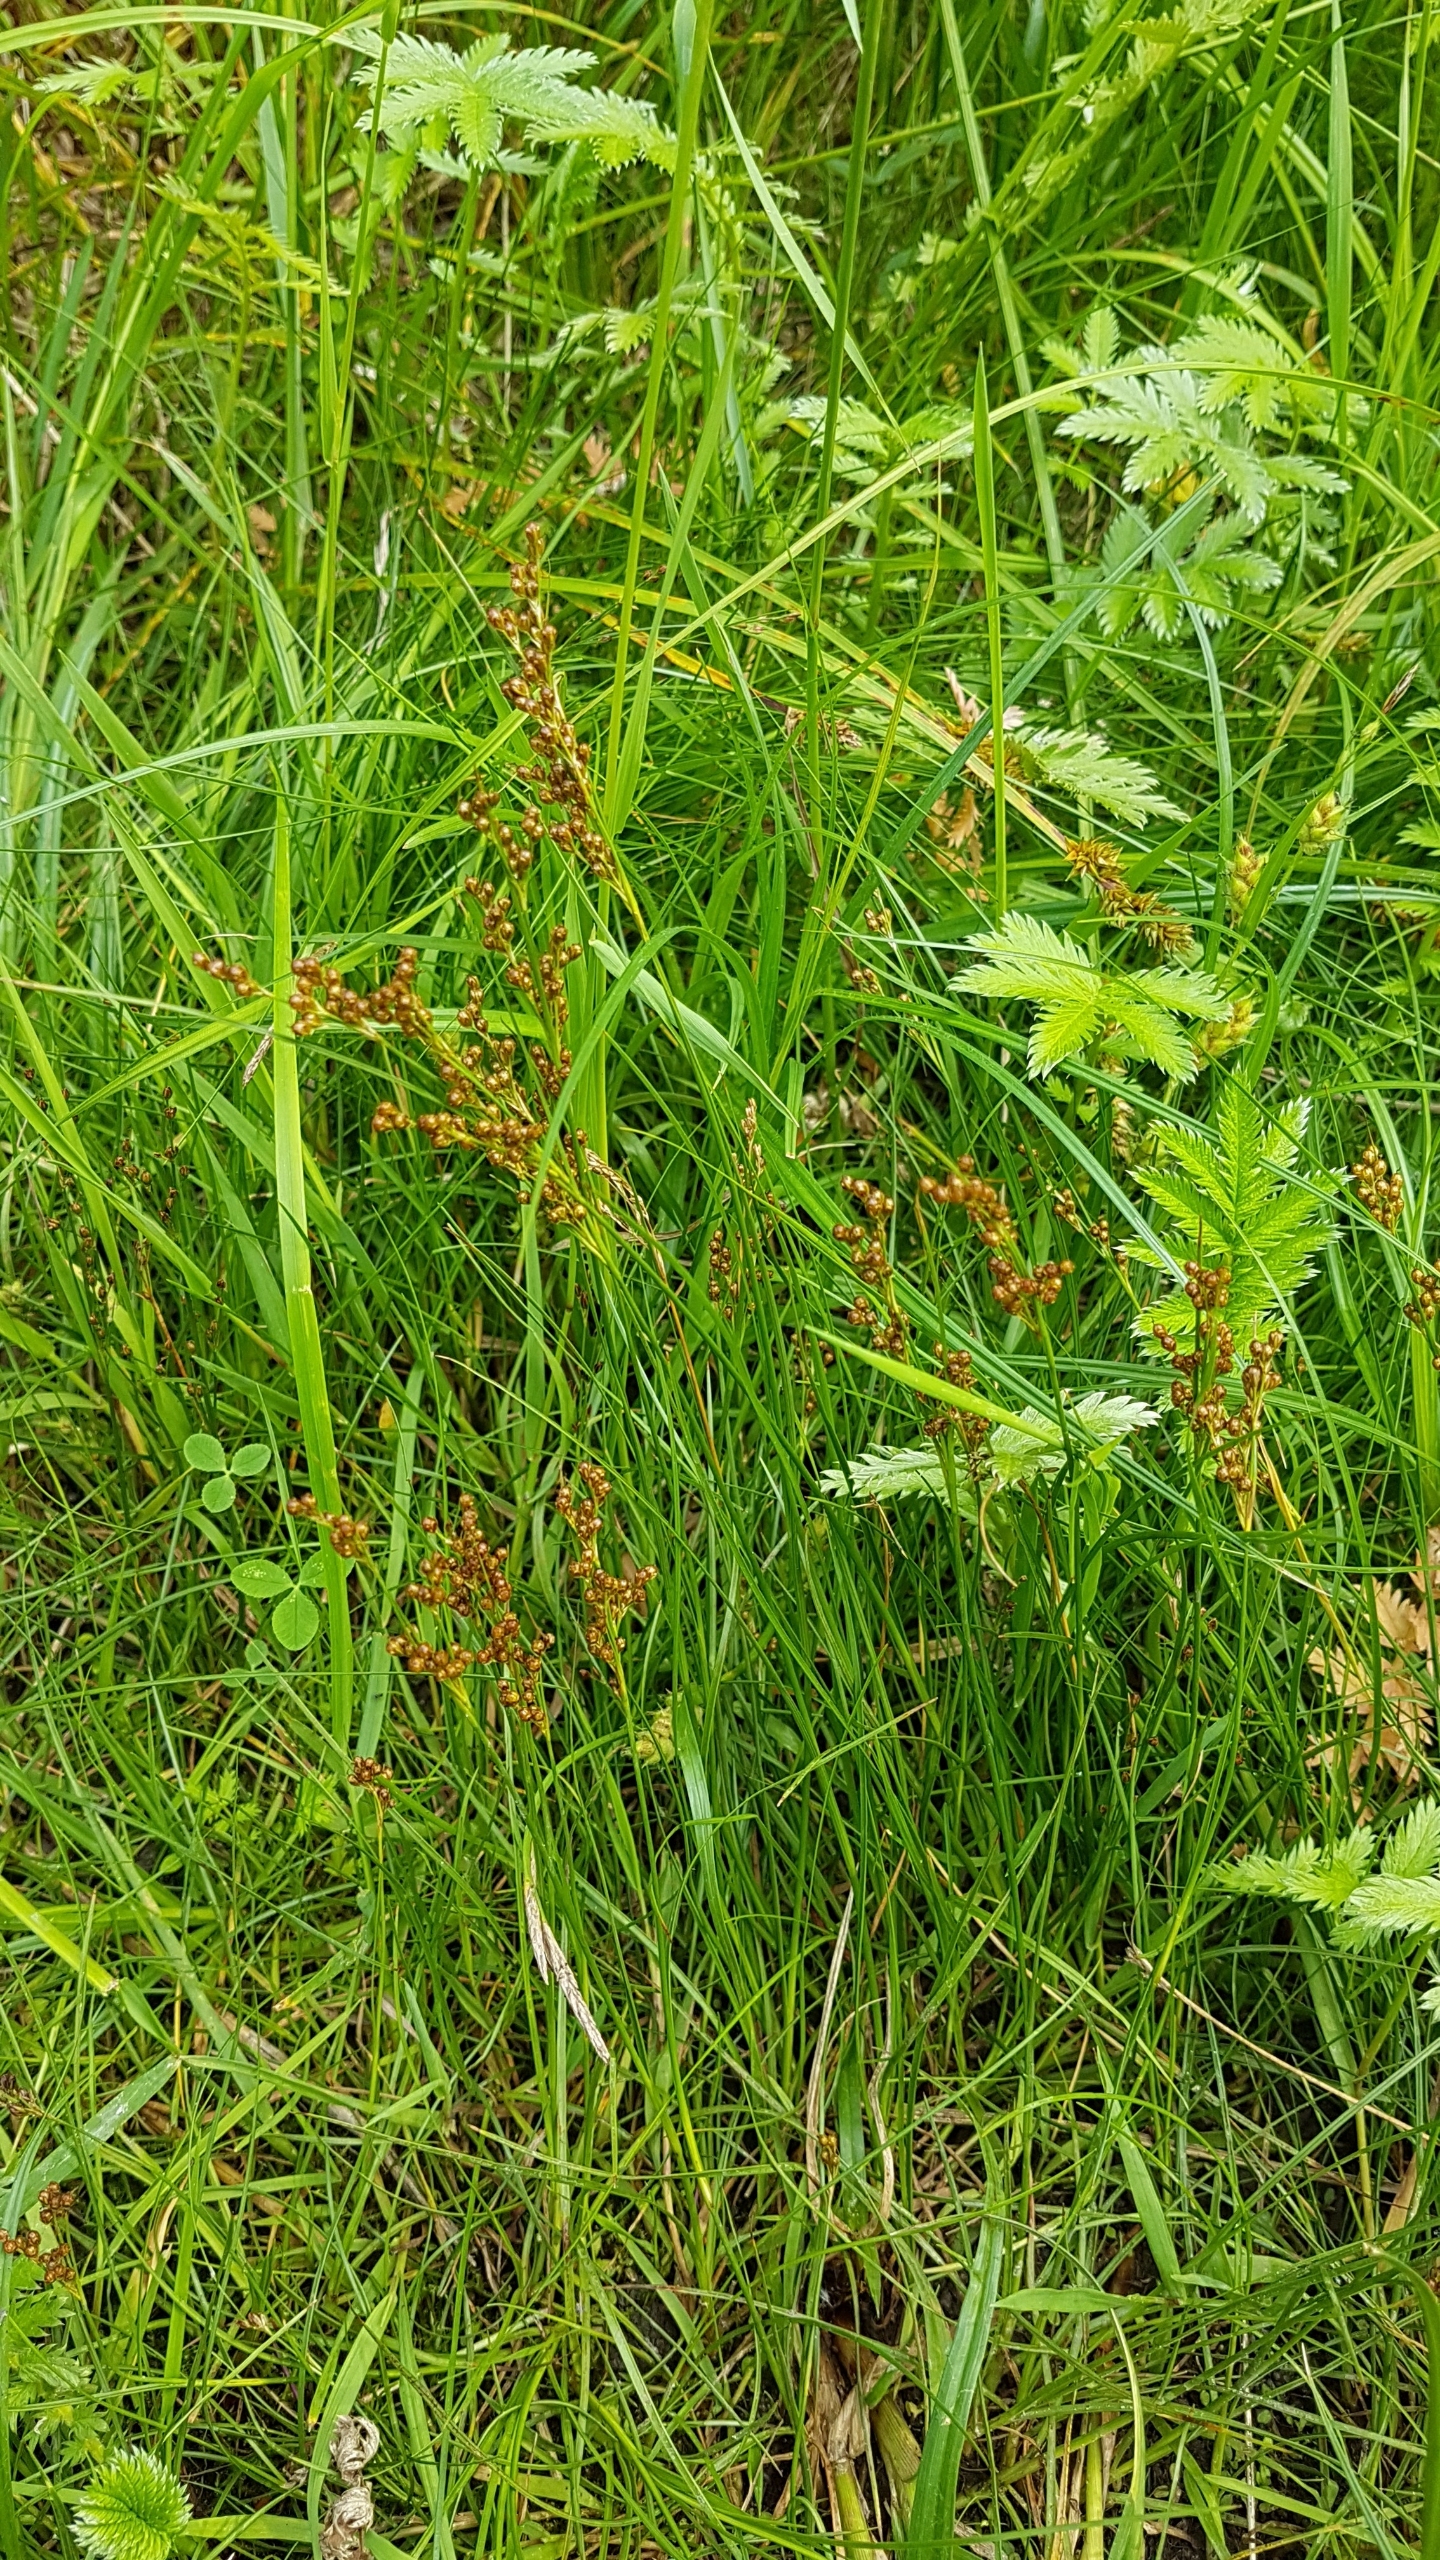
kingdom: Plantae
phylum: Tracheophyta
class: Liliopsida
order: Poales
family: Juncaceae
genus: Juncus
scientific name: Juncus compressus
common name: Fladstrået siv
